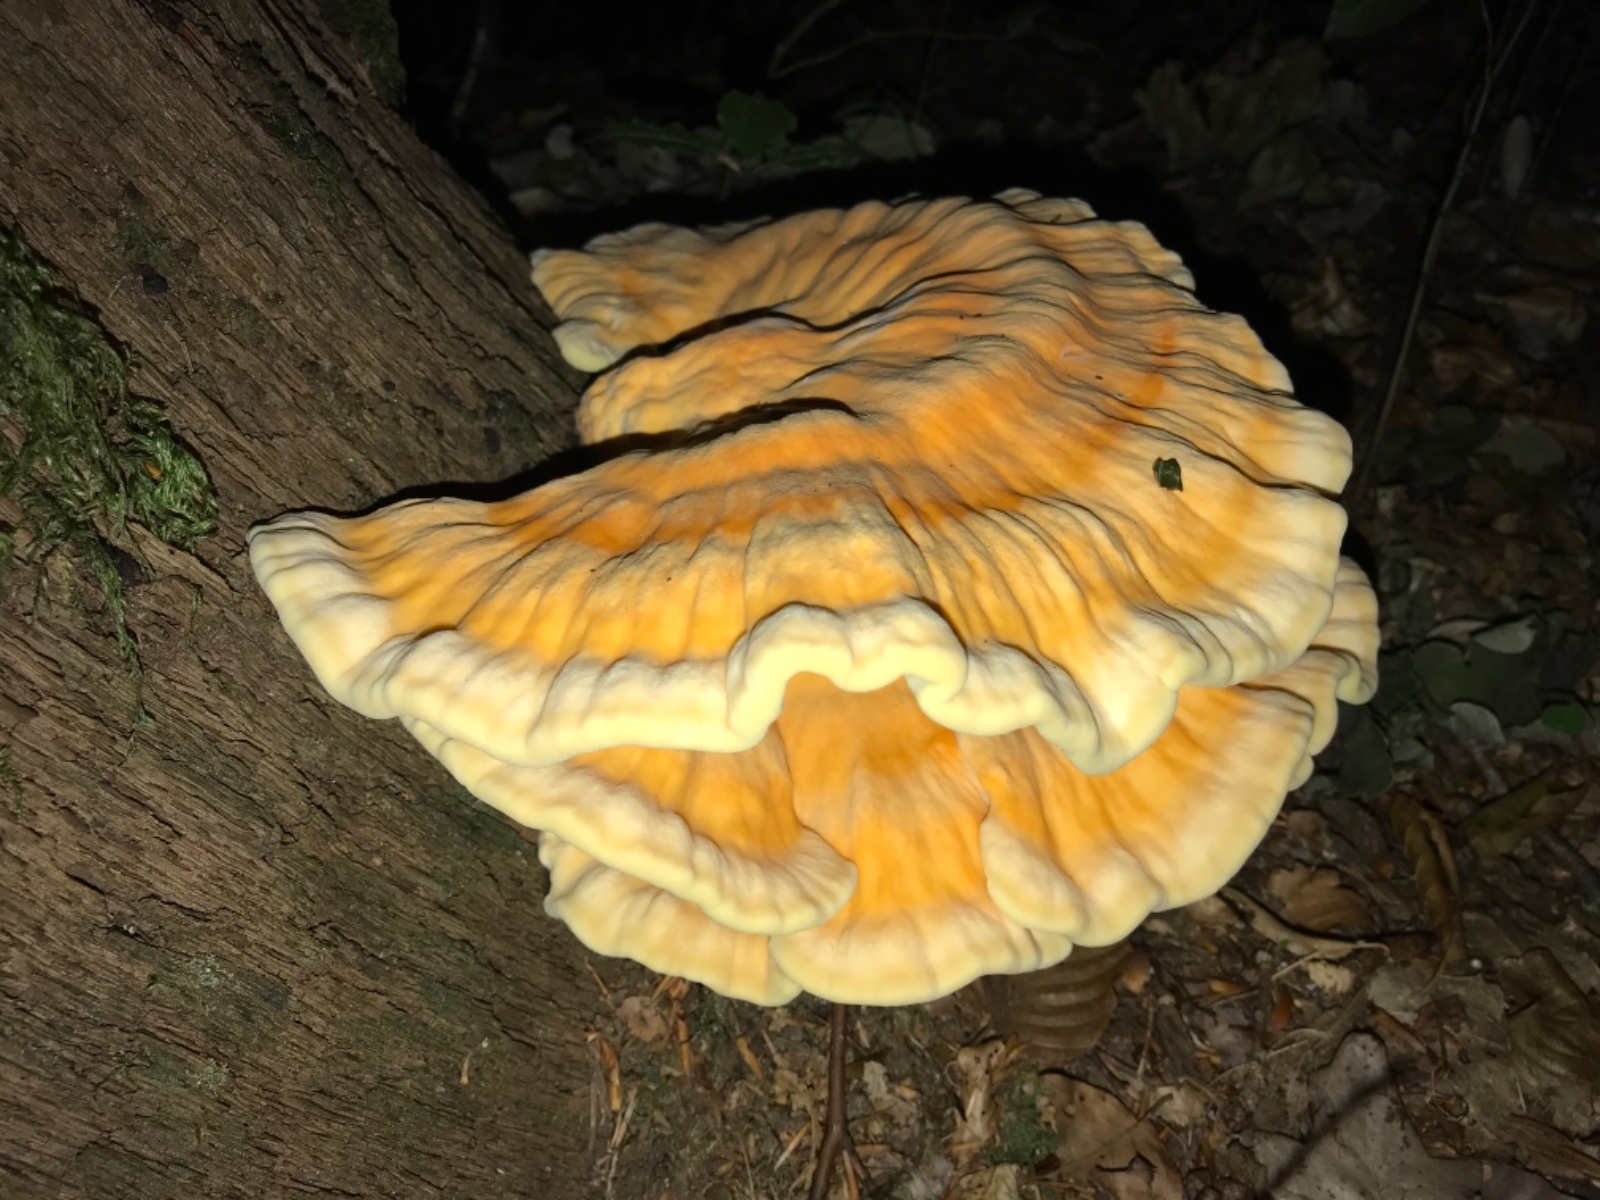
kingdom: Fungi
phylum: Basidiomycota
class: Agaricomycetes
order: Polyporales
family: Laetiporaceae
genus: Laetiporus
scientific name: Laetiporus sulphureus
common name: svovlporesvamp
